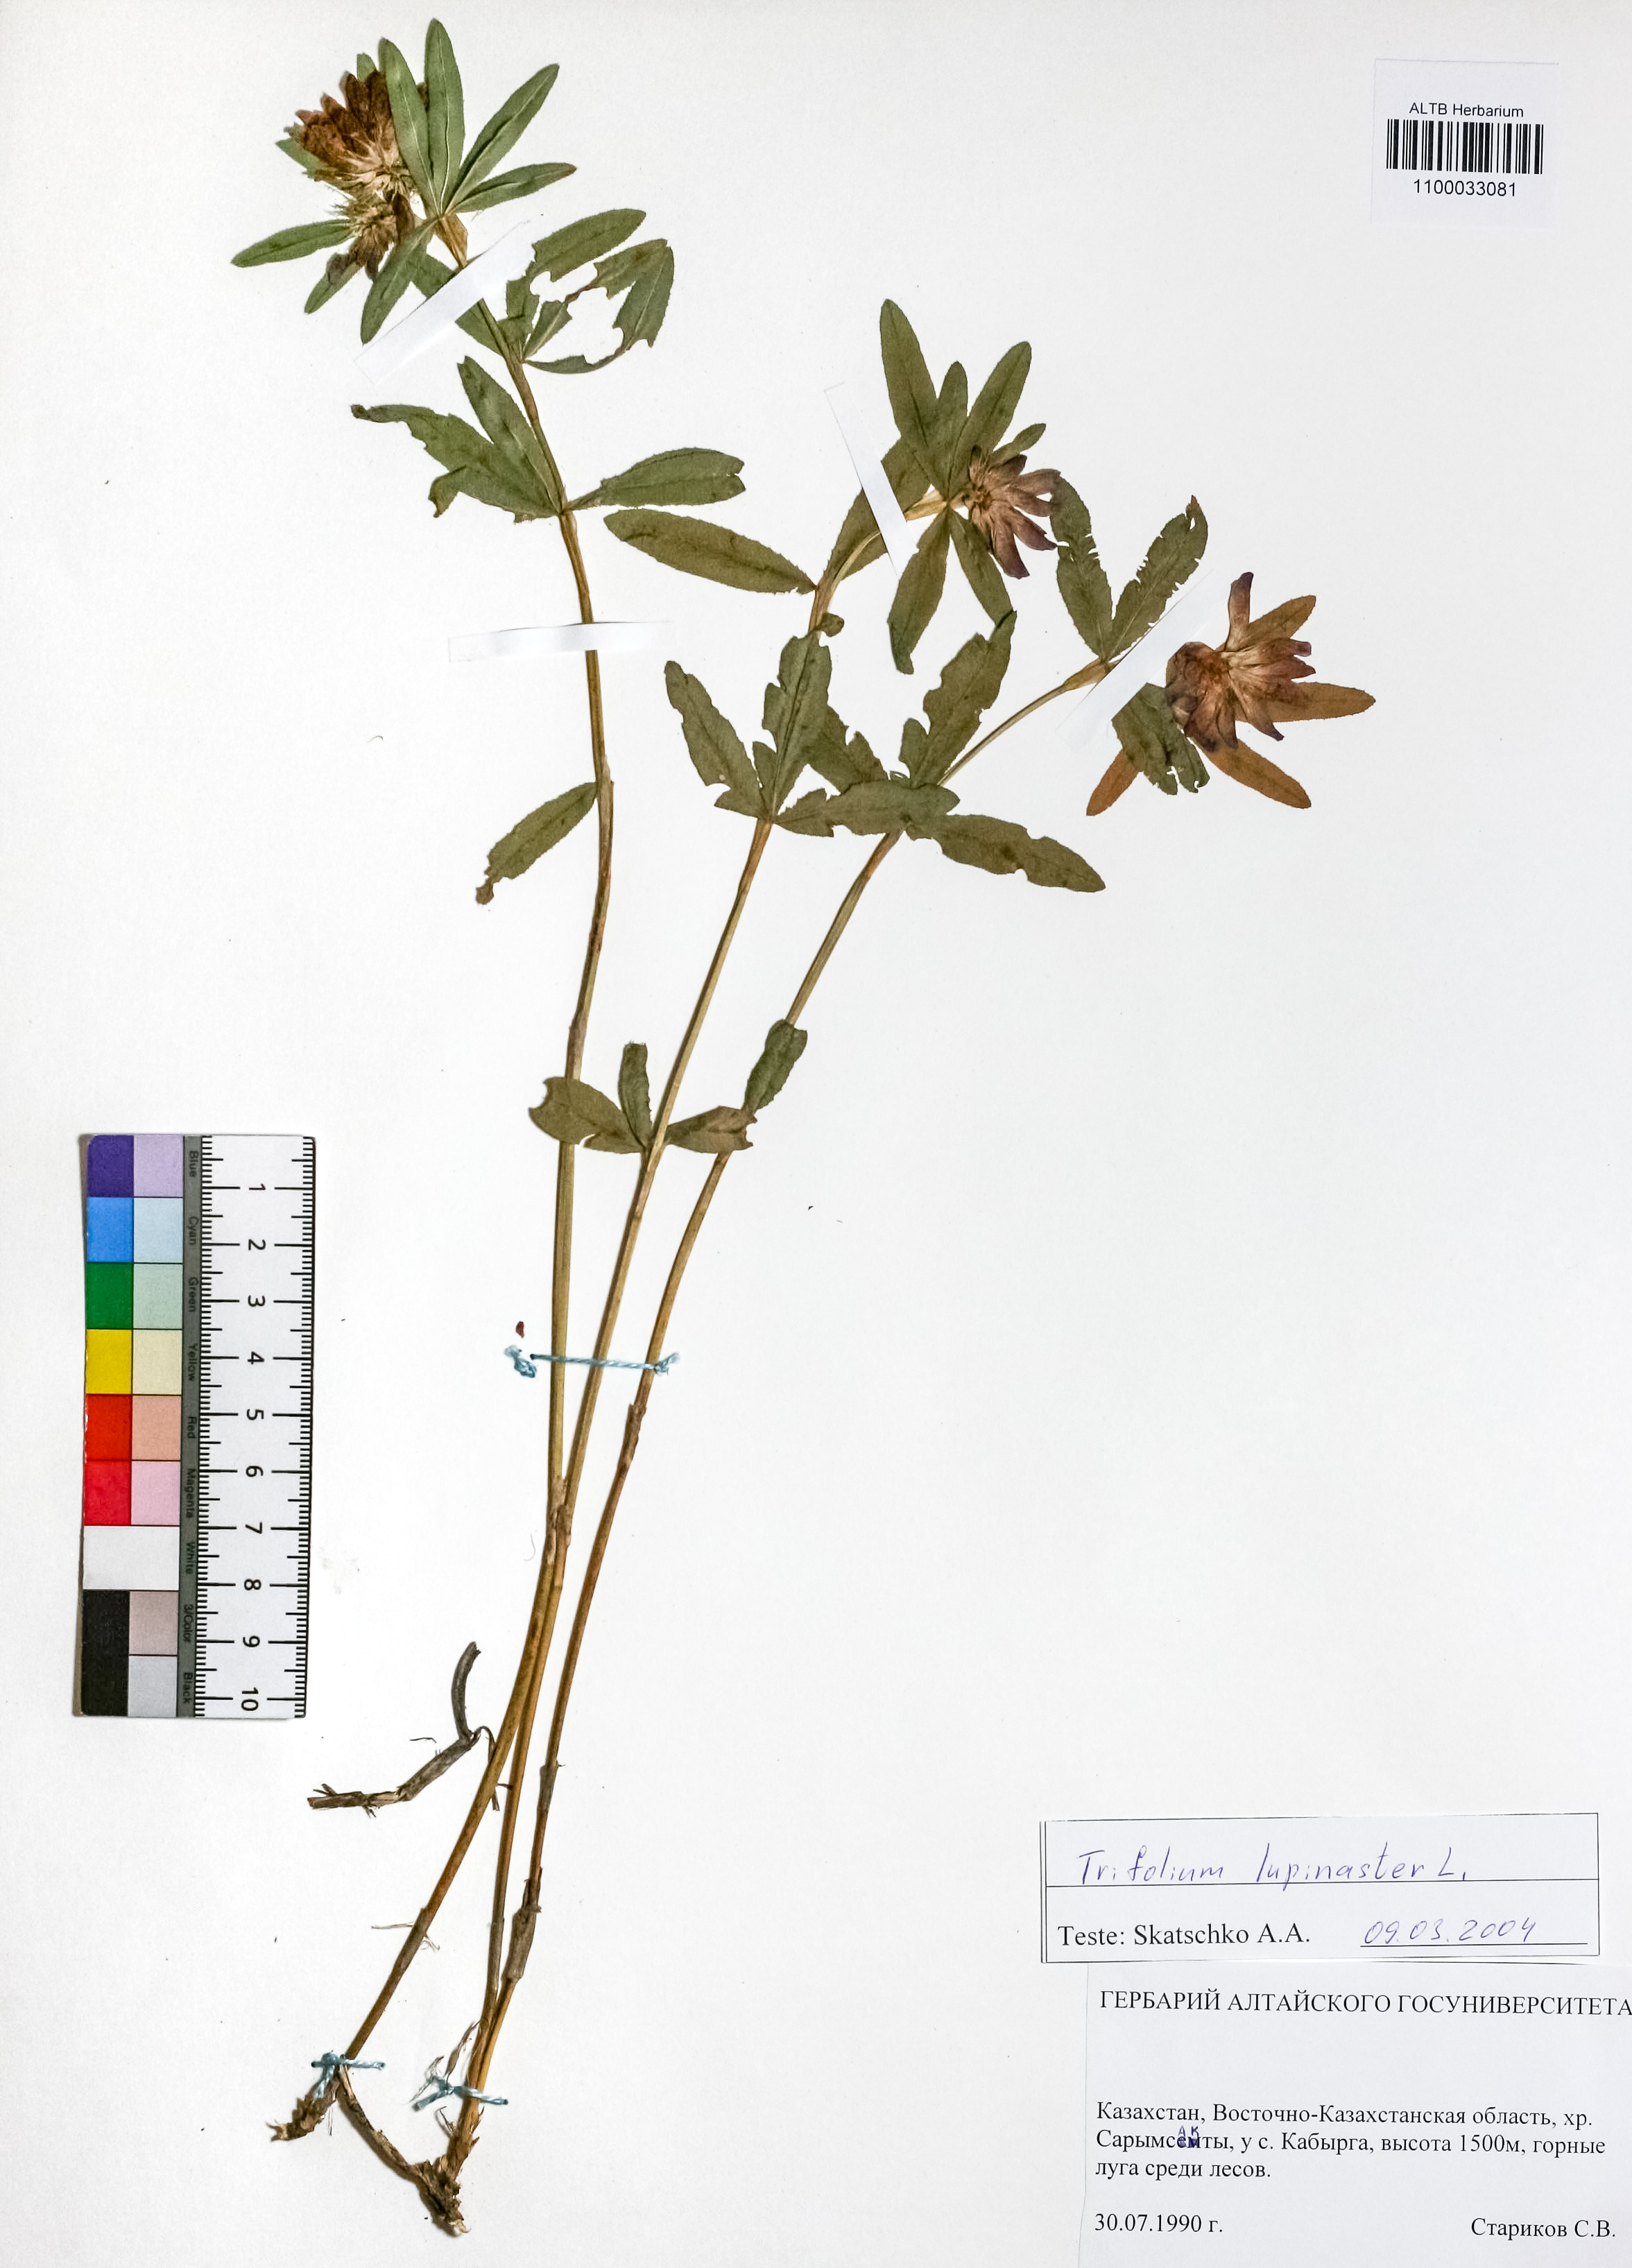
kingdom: Plantae
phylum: Tracheophyta
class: Magnoliopsida
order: Fabales
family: Fabaceae
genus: Trifolium
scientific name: Trifolium lupinaster
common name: Lupine clover
